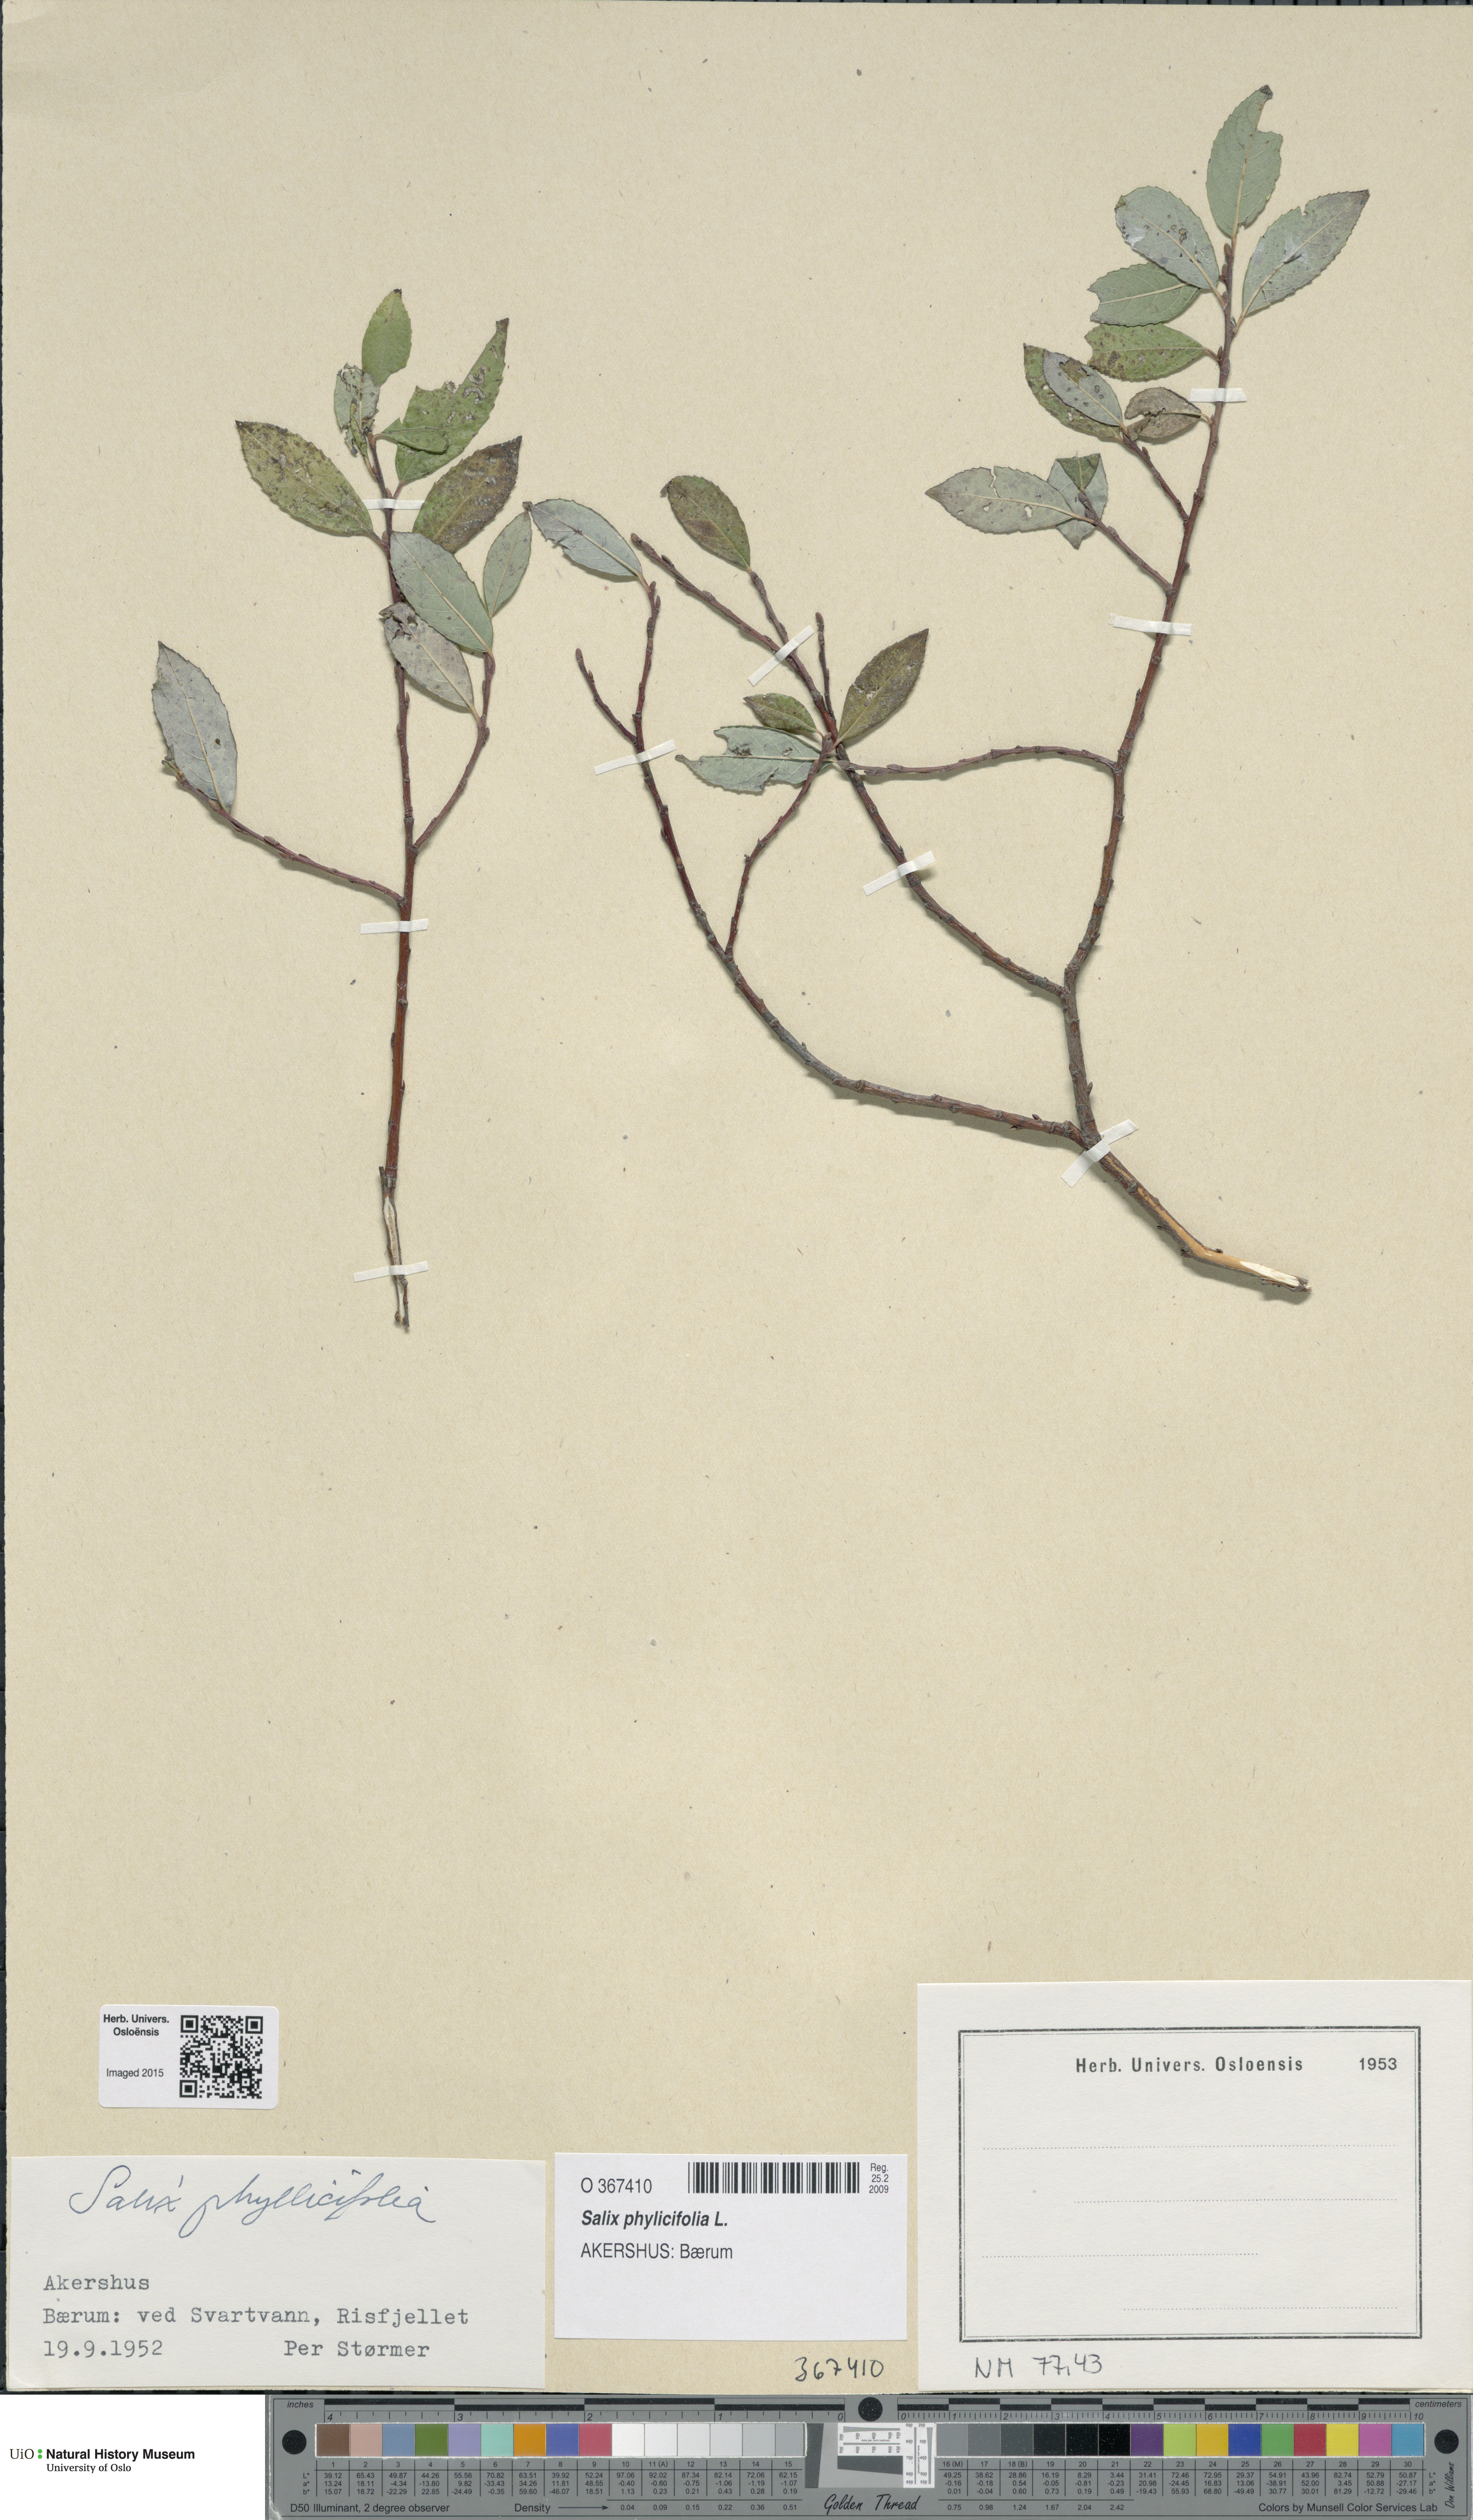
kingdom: Plantae
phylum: Tracheophyta
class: Magnoliopsida
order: Malpighiales
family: Salicaceae
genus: Salix
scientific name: Salix myrsinifolia
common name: Dark-leaved willow
